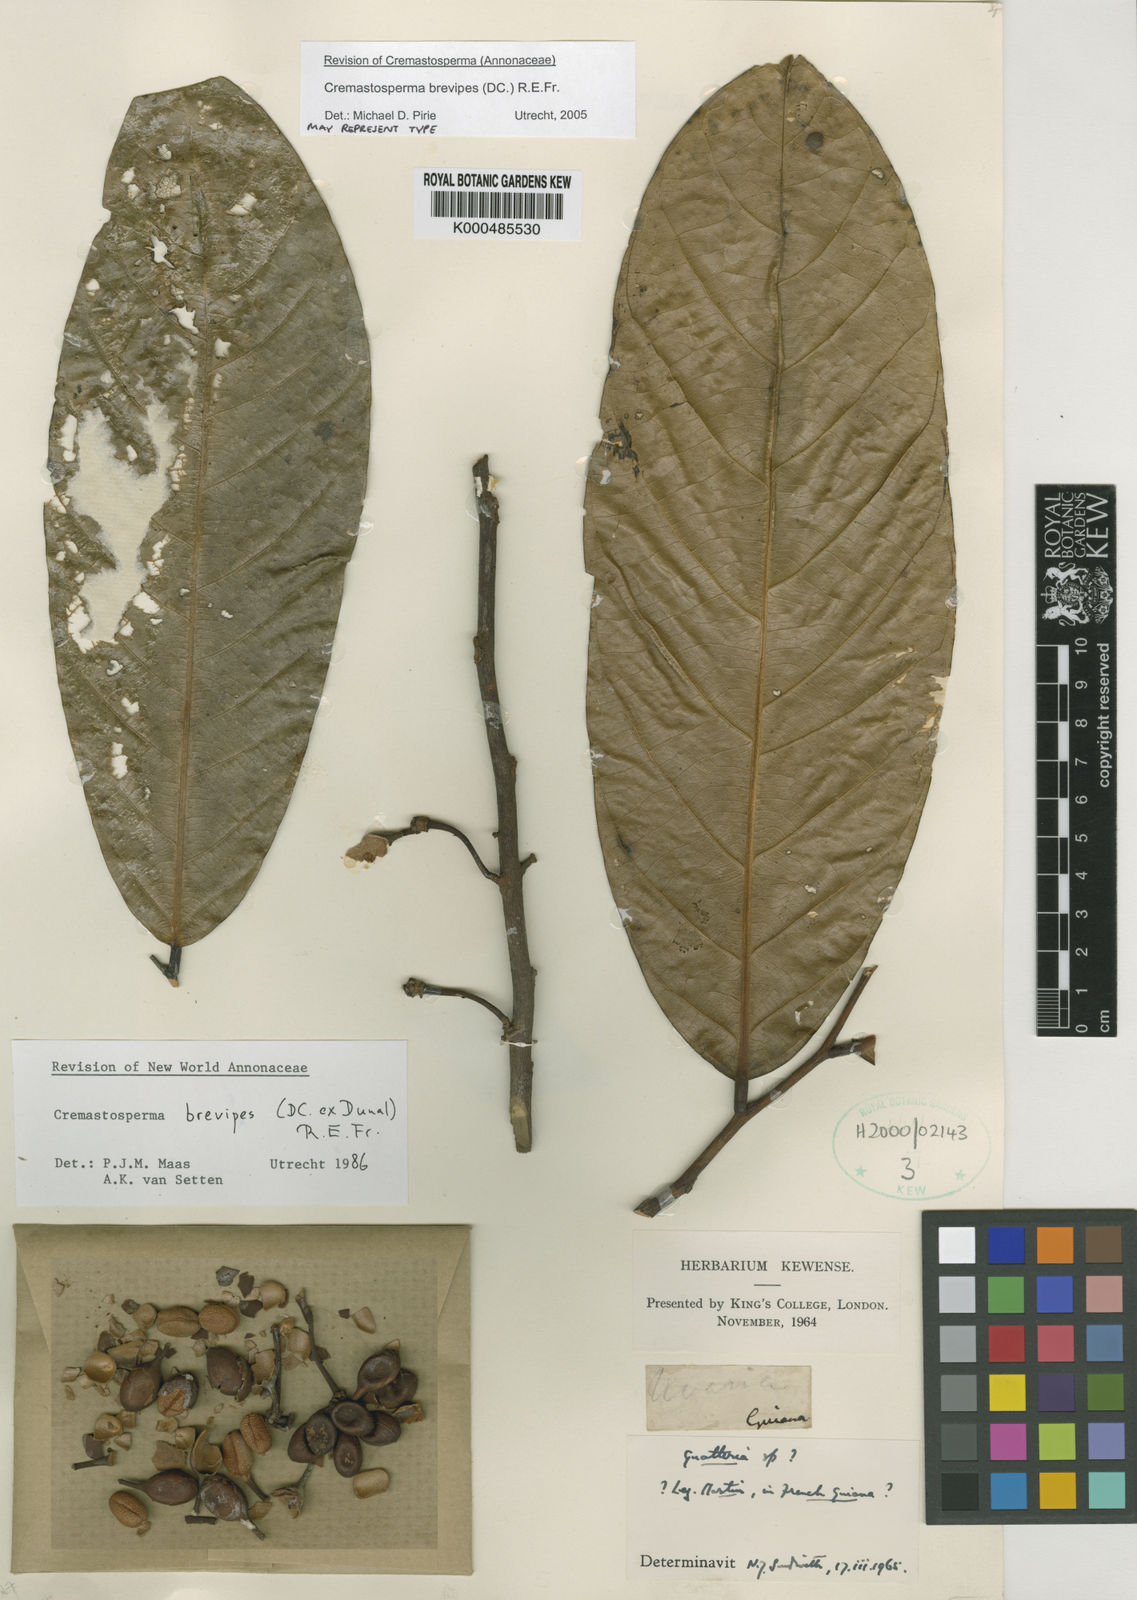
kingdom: Plantae
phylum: Tracheophyta
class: Magnoliopsida
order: Magnoliales
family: Annonaceae
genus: Cremastosperma
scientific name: Cremastosperma brevipes
